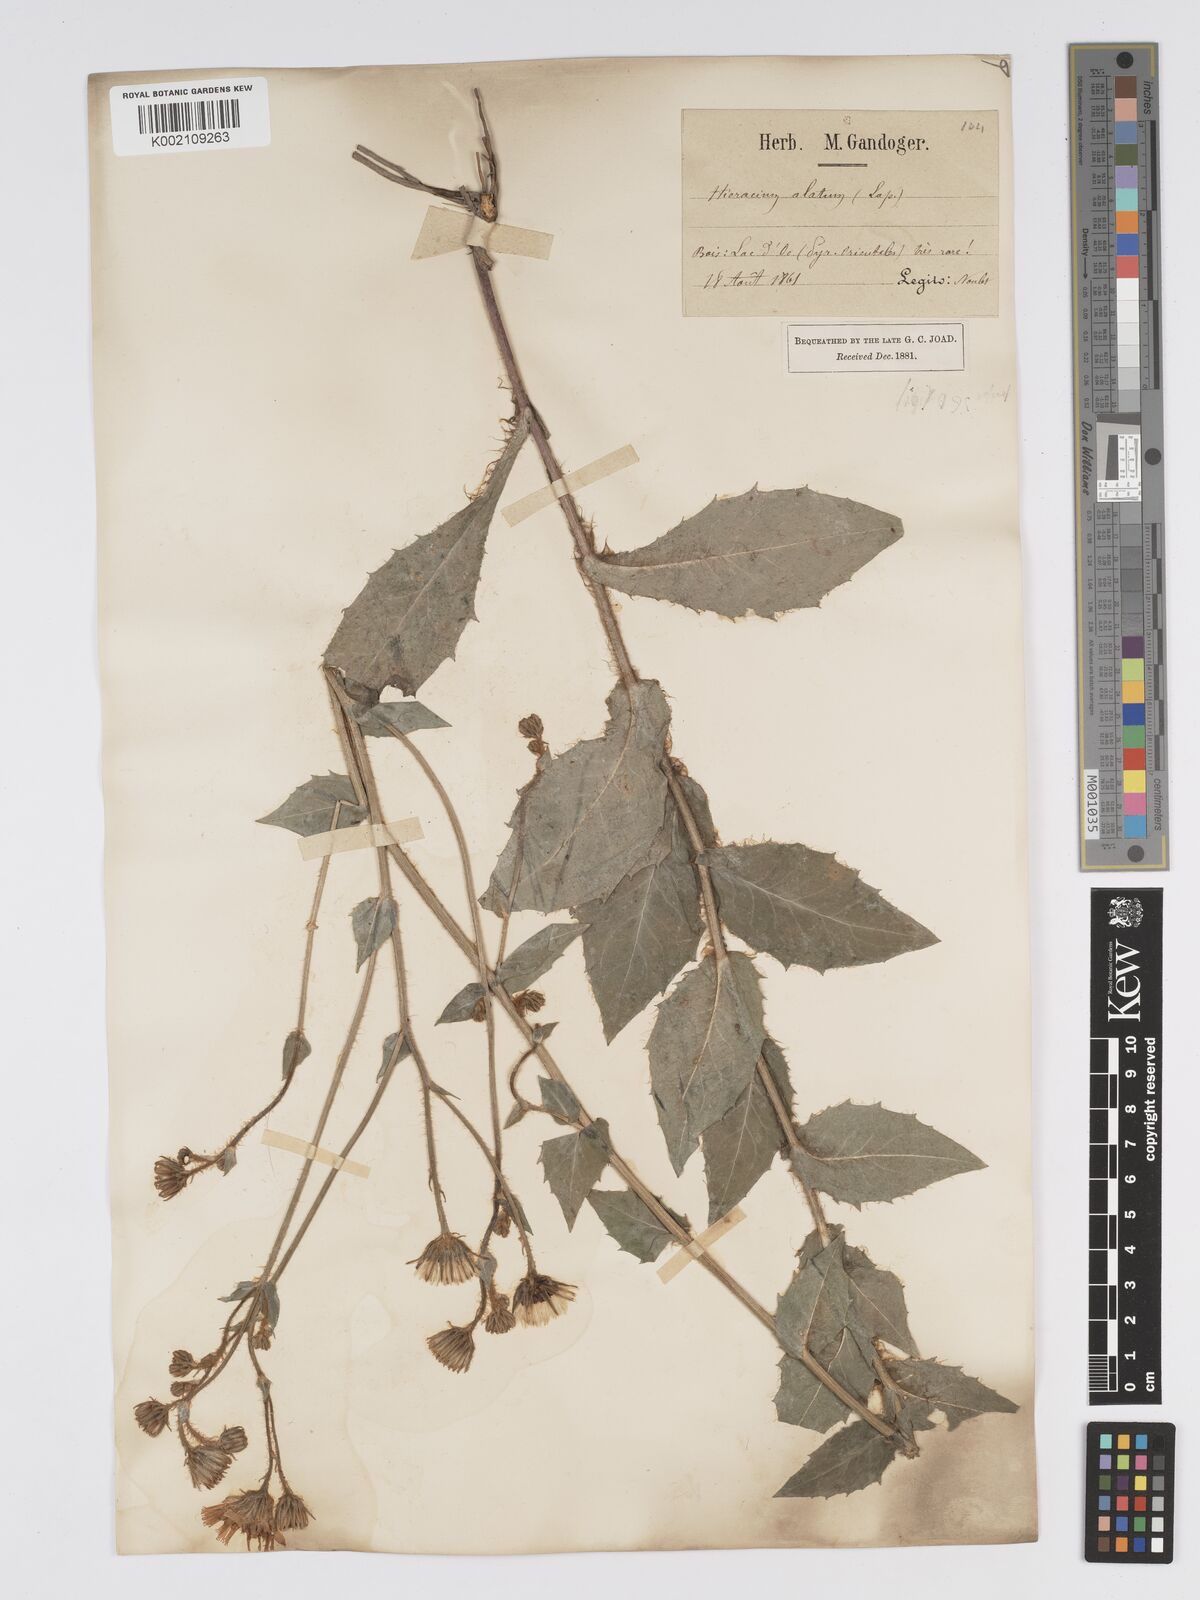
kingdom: Plantae
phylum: Tracheophyta
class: Magnoliopsida
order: Asterales
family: Asteraceae
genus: Hieracium
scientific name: Hieracium lycopifolium
